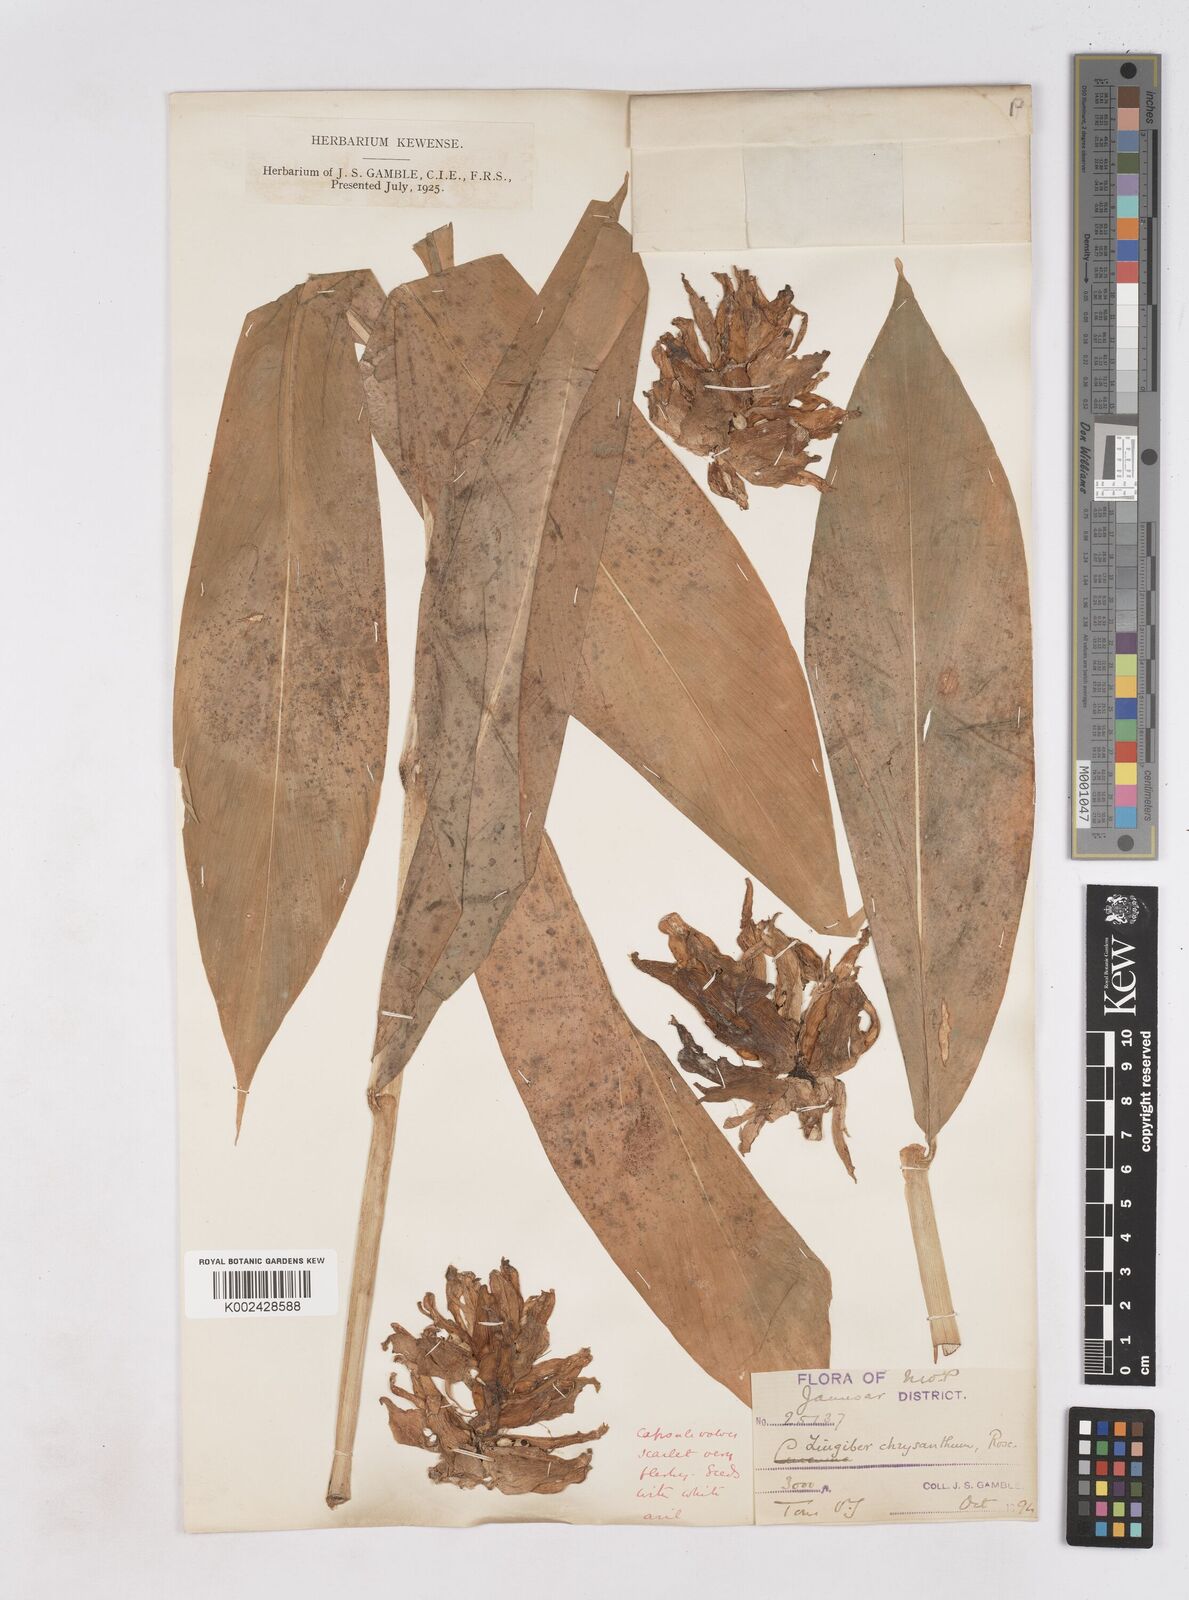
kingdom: Plantae
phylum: Tracheophyta
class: Liliopsida
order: Zingiberales
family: Zingiberaceae
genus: Zingiber
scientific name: Zingiber chrysanthum
